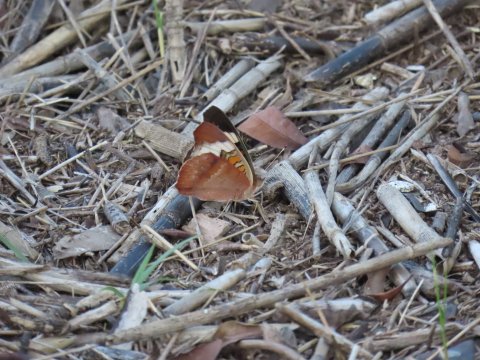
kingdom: Animalia
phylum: Arthropoda
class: Insecta
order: Lepidoptera
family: Nymphalidae
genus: Junonia
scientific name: Junonia coenia
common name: Common Buckeye
